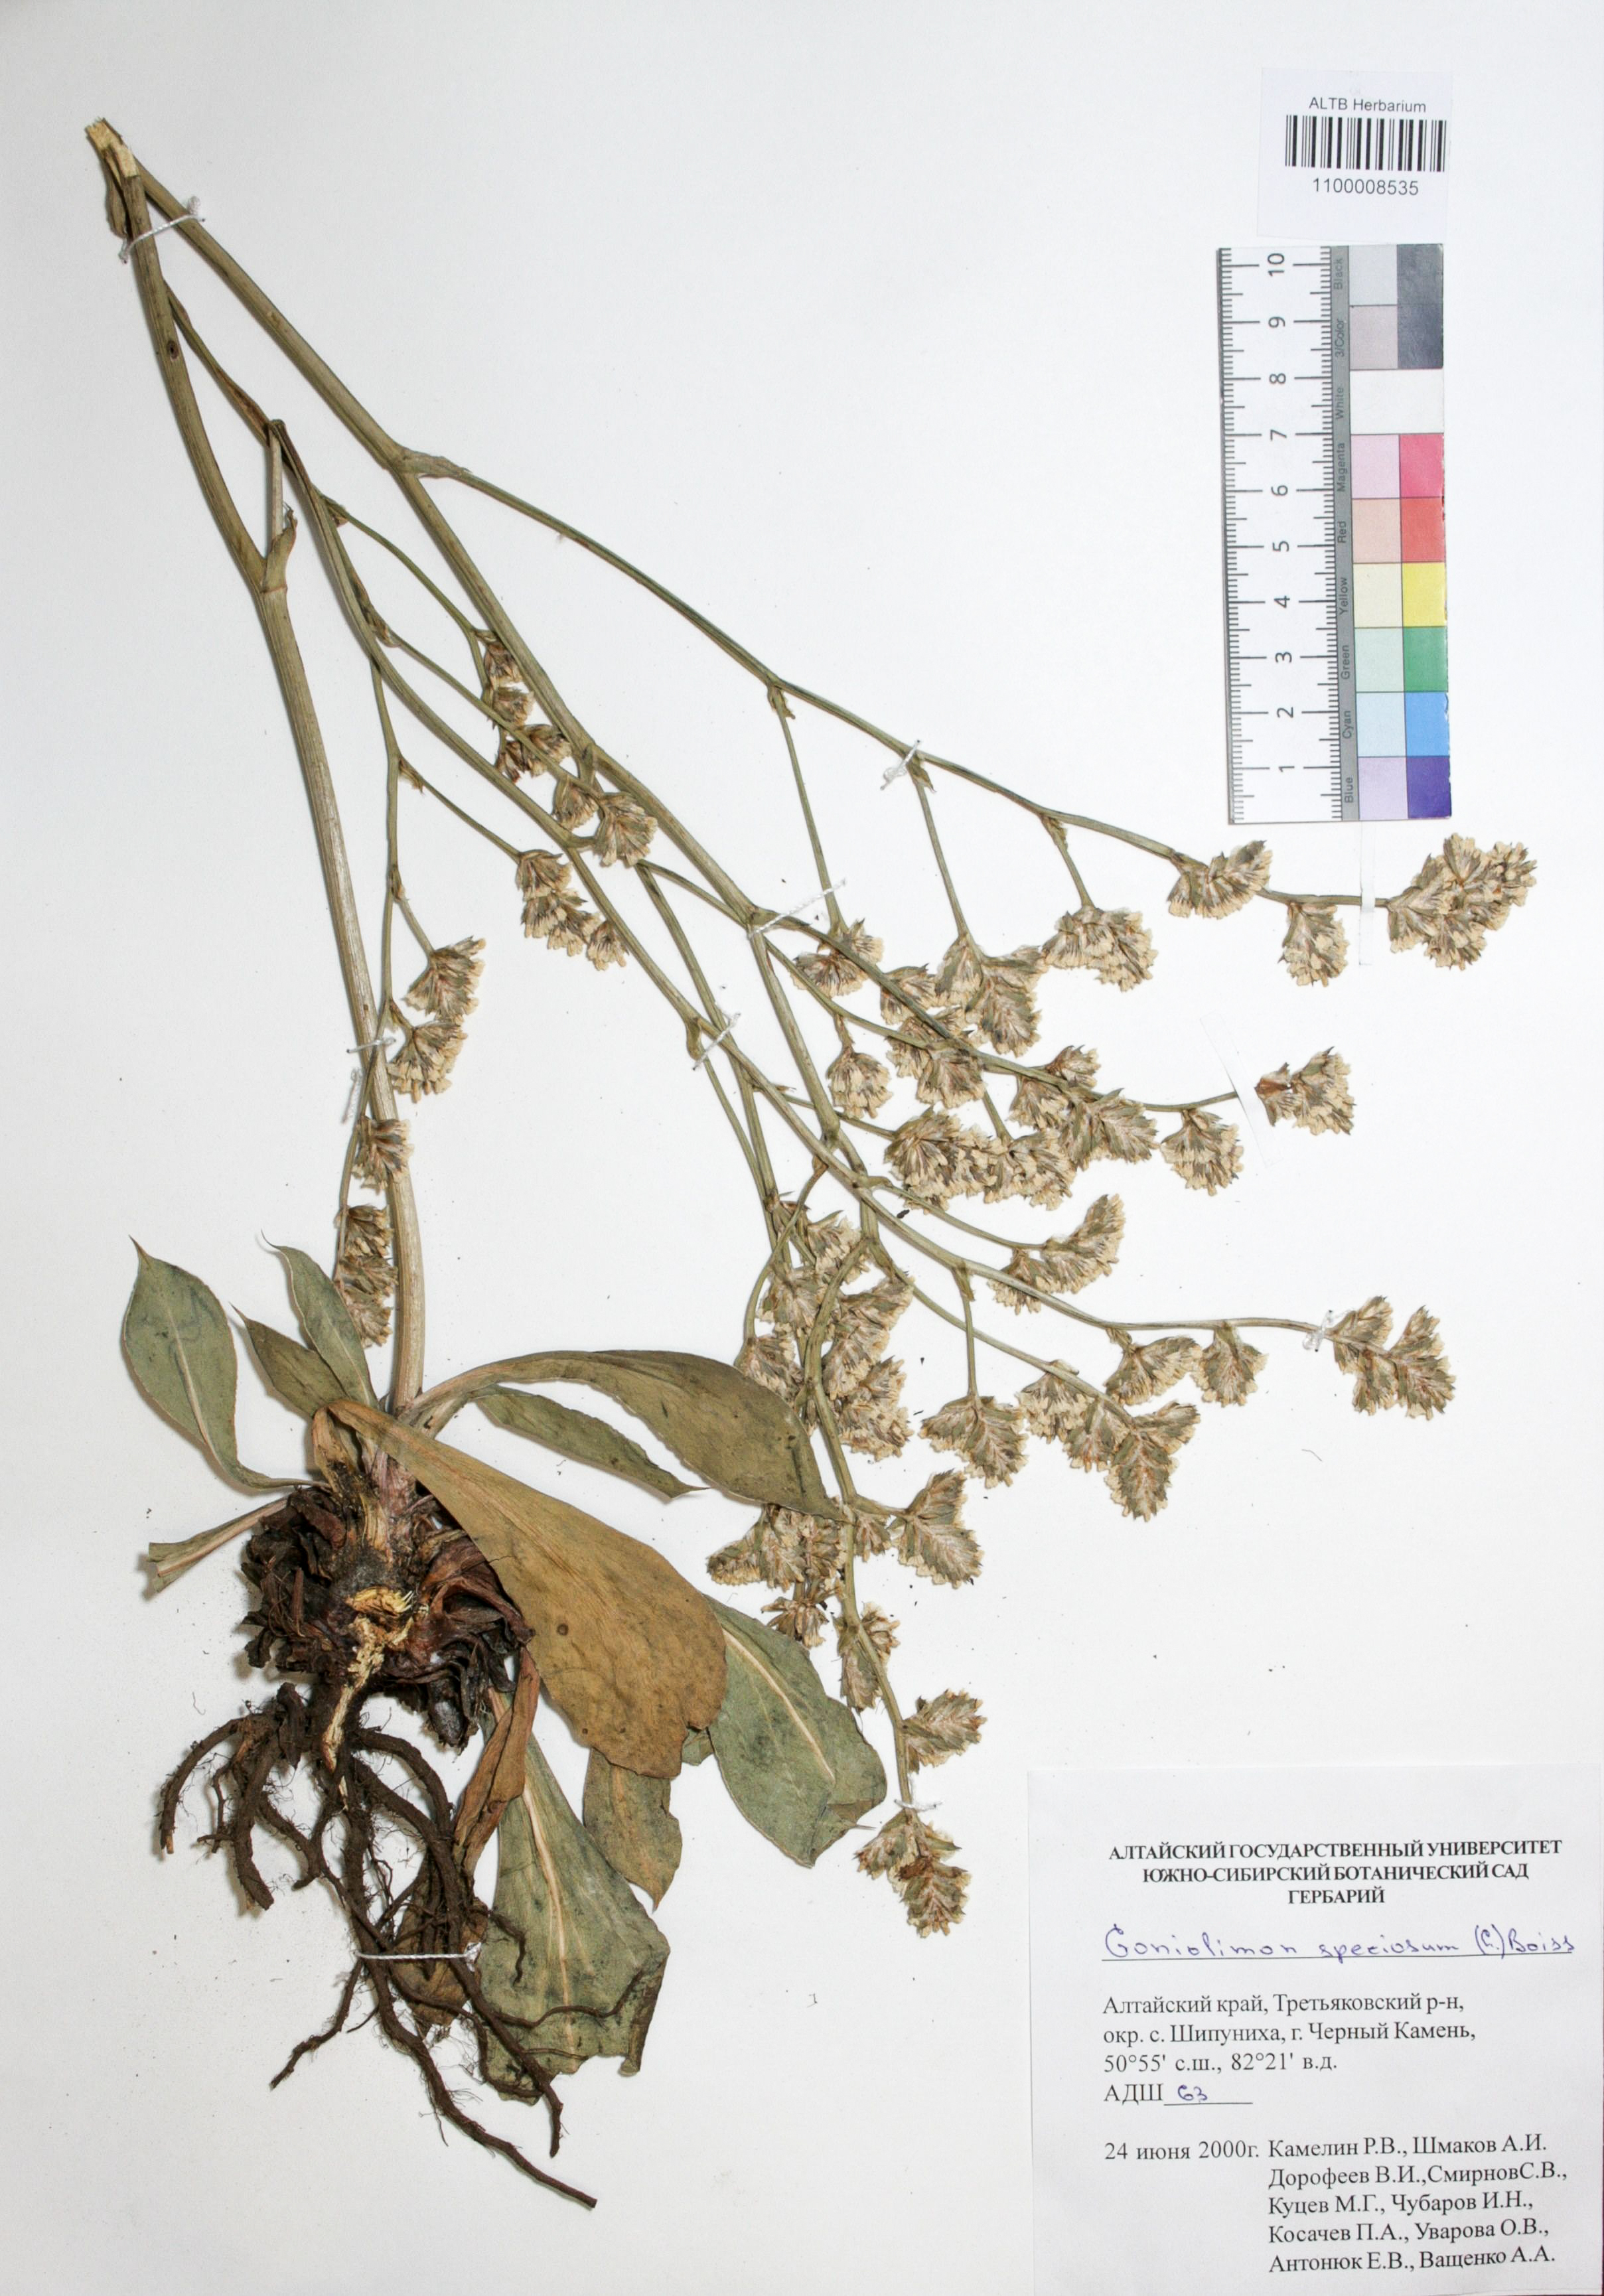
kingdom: Plantae
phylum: Tracheophyta
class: Magnoliopsida
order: Caryophyllales
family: Plumbaginaceae
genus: Goniolimon
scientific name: Goniolimon speciosum
